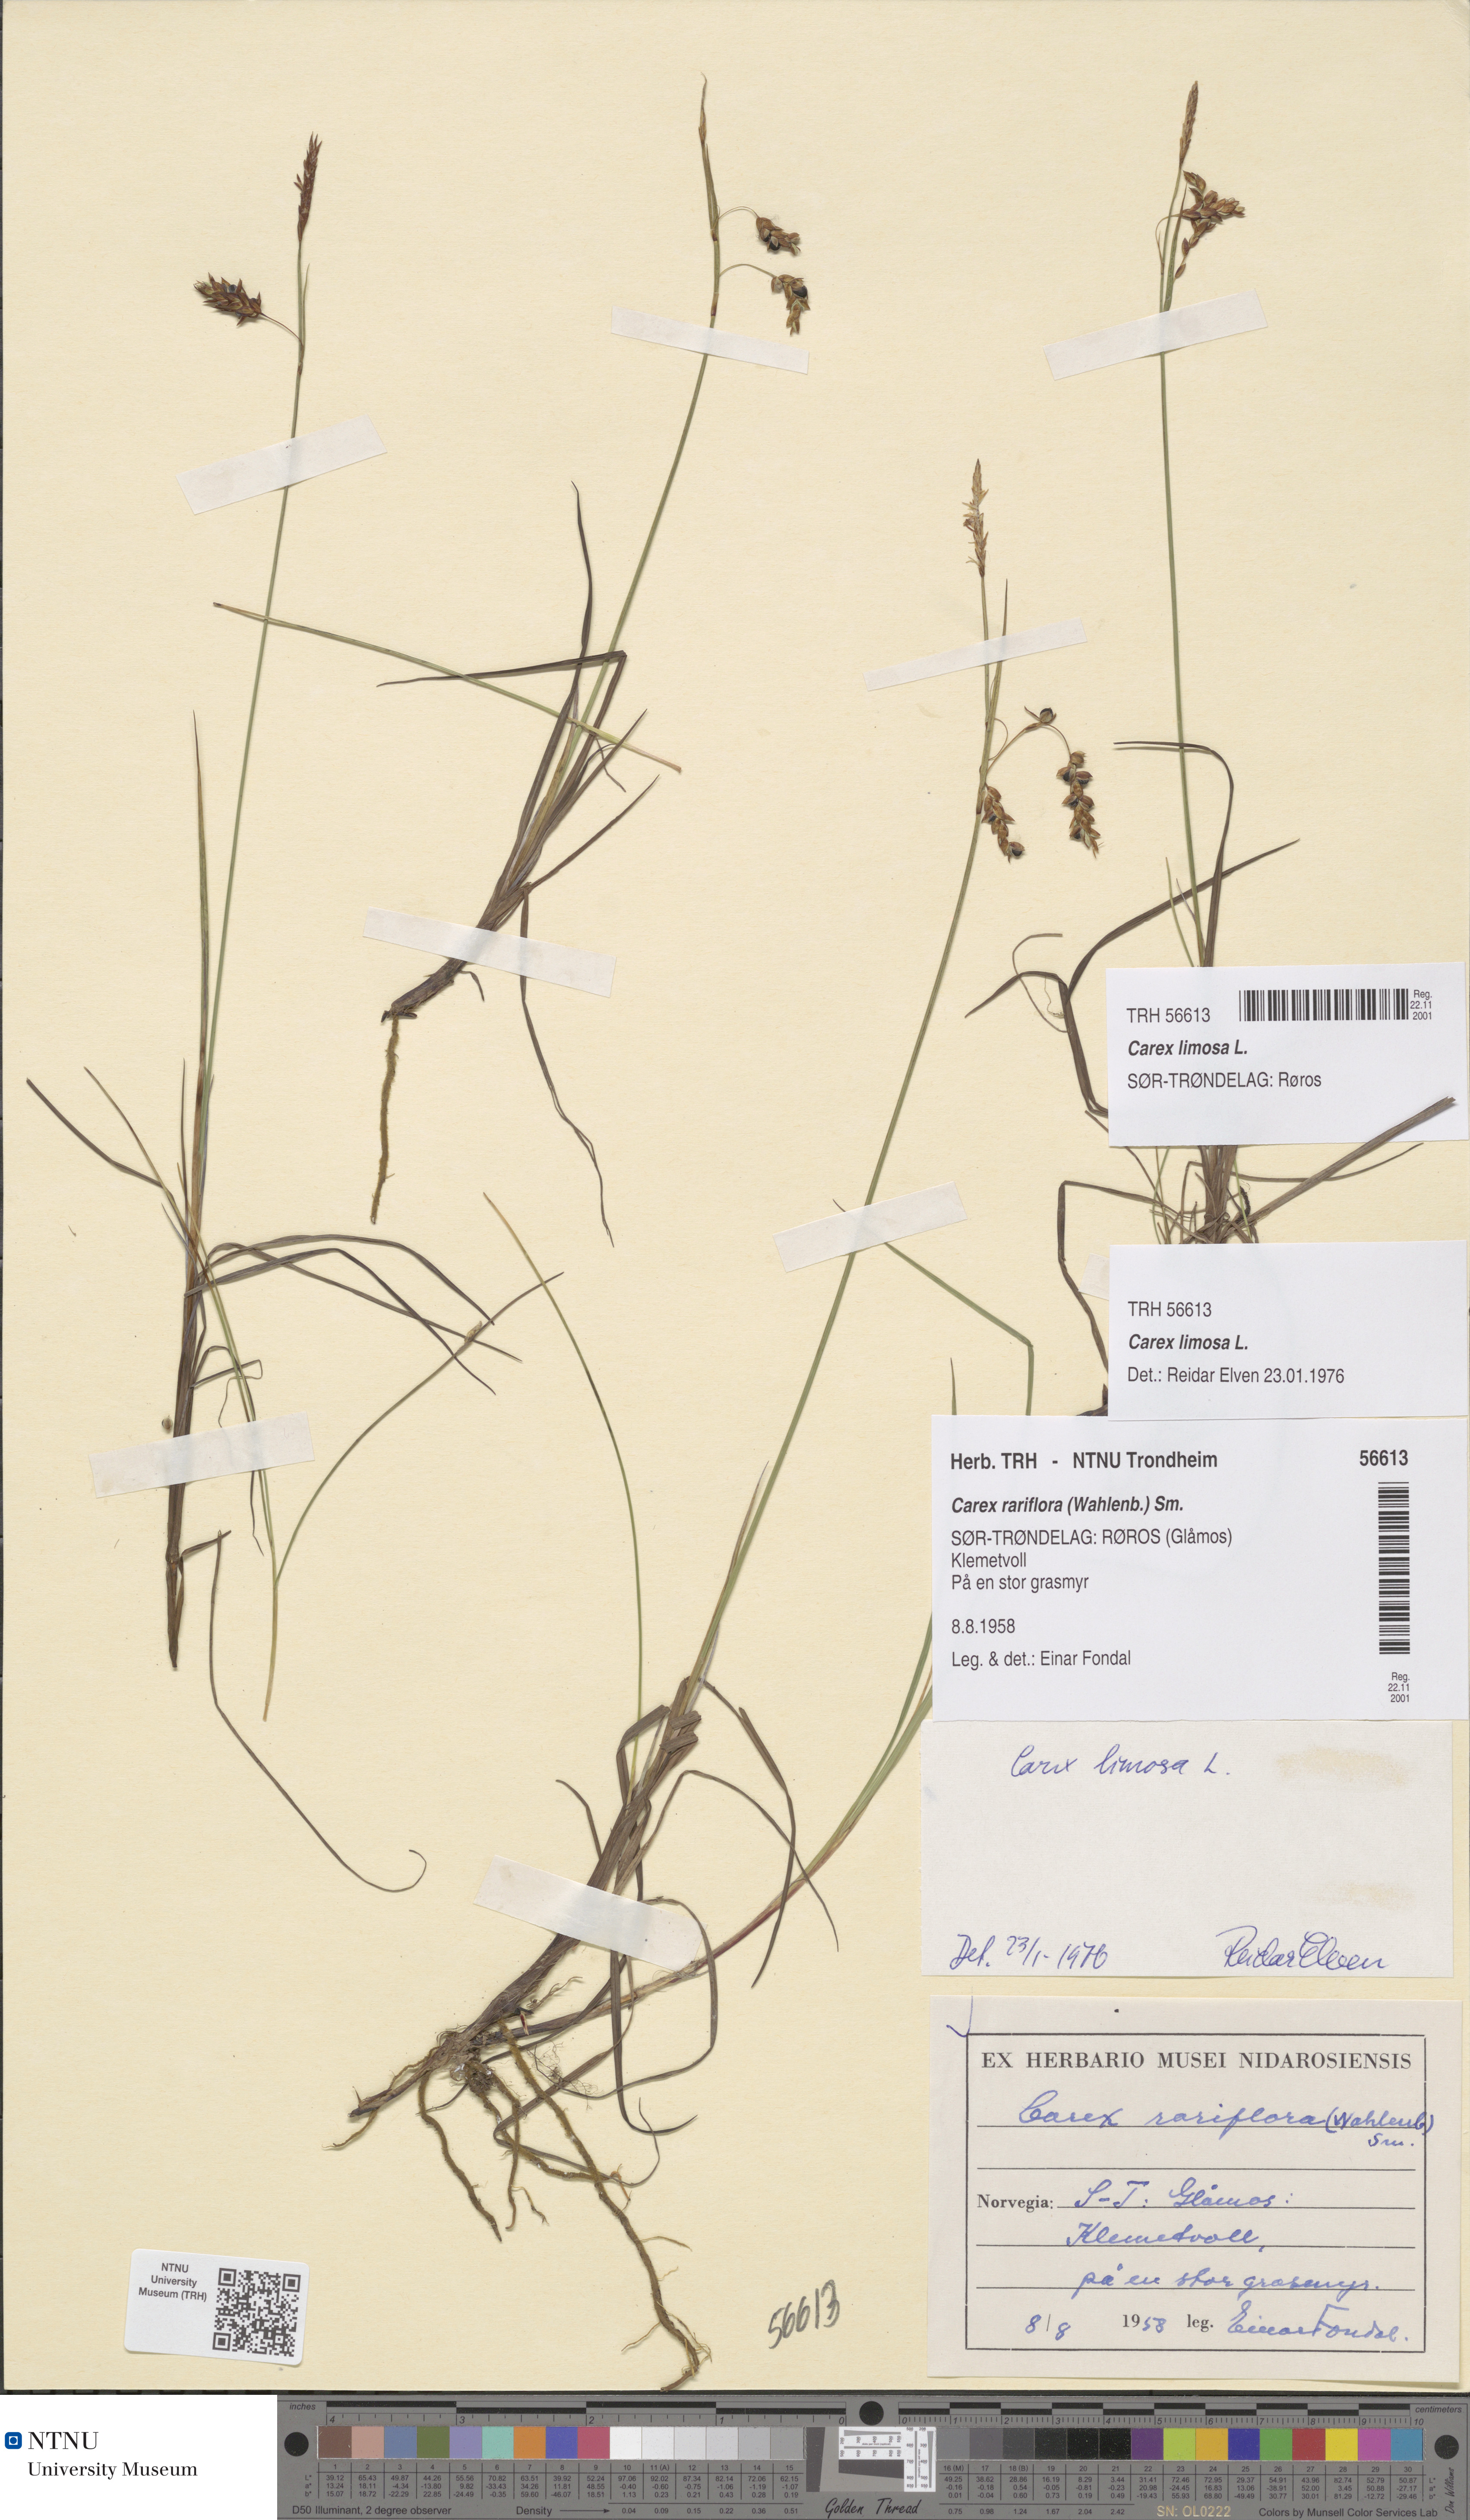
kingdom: Plantae
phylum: Tracheophyta
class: Liliopsida
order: Poales
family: Cyperaceae
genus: Carex
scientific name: Carex limosa
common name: Bog sedge
